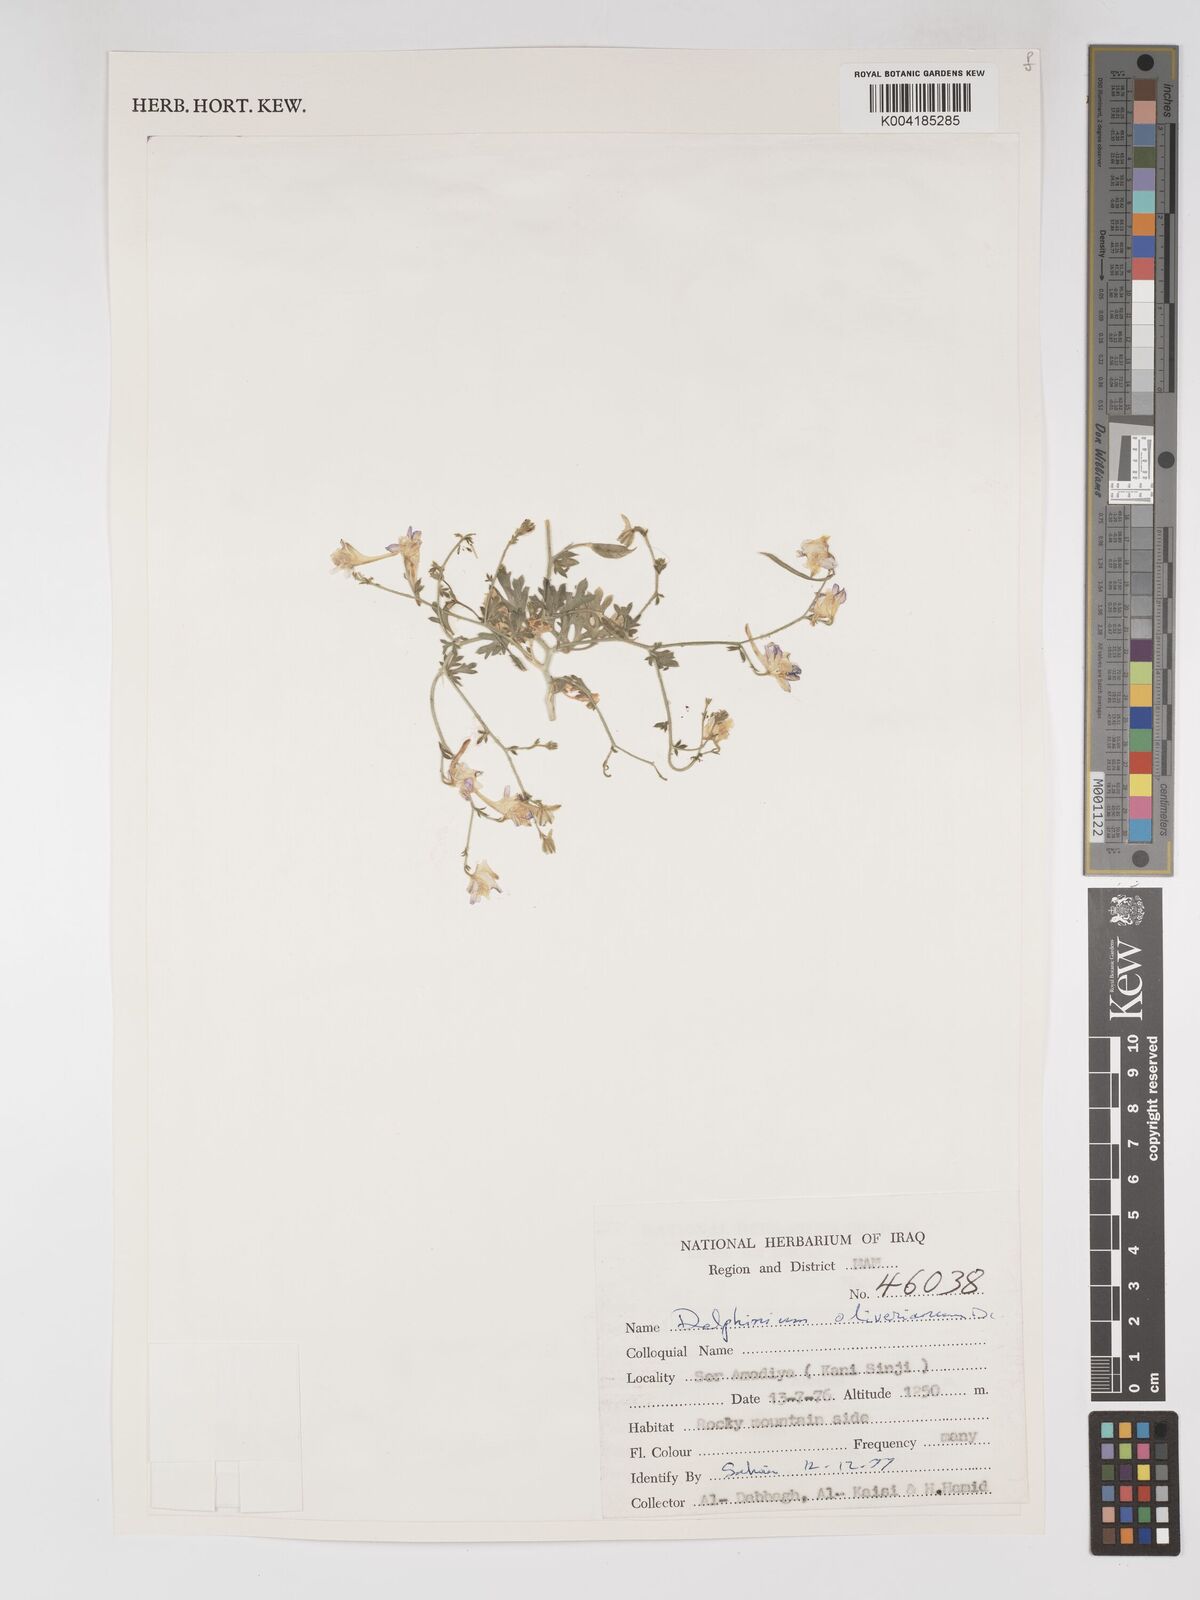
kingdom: Plantae
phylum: Tracheophyta
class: Magnoliopsida
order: Ranunculales
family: Ranunculaceae
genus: Delphinium
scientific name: Delphinium oliverianum
